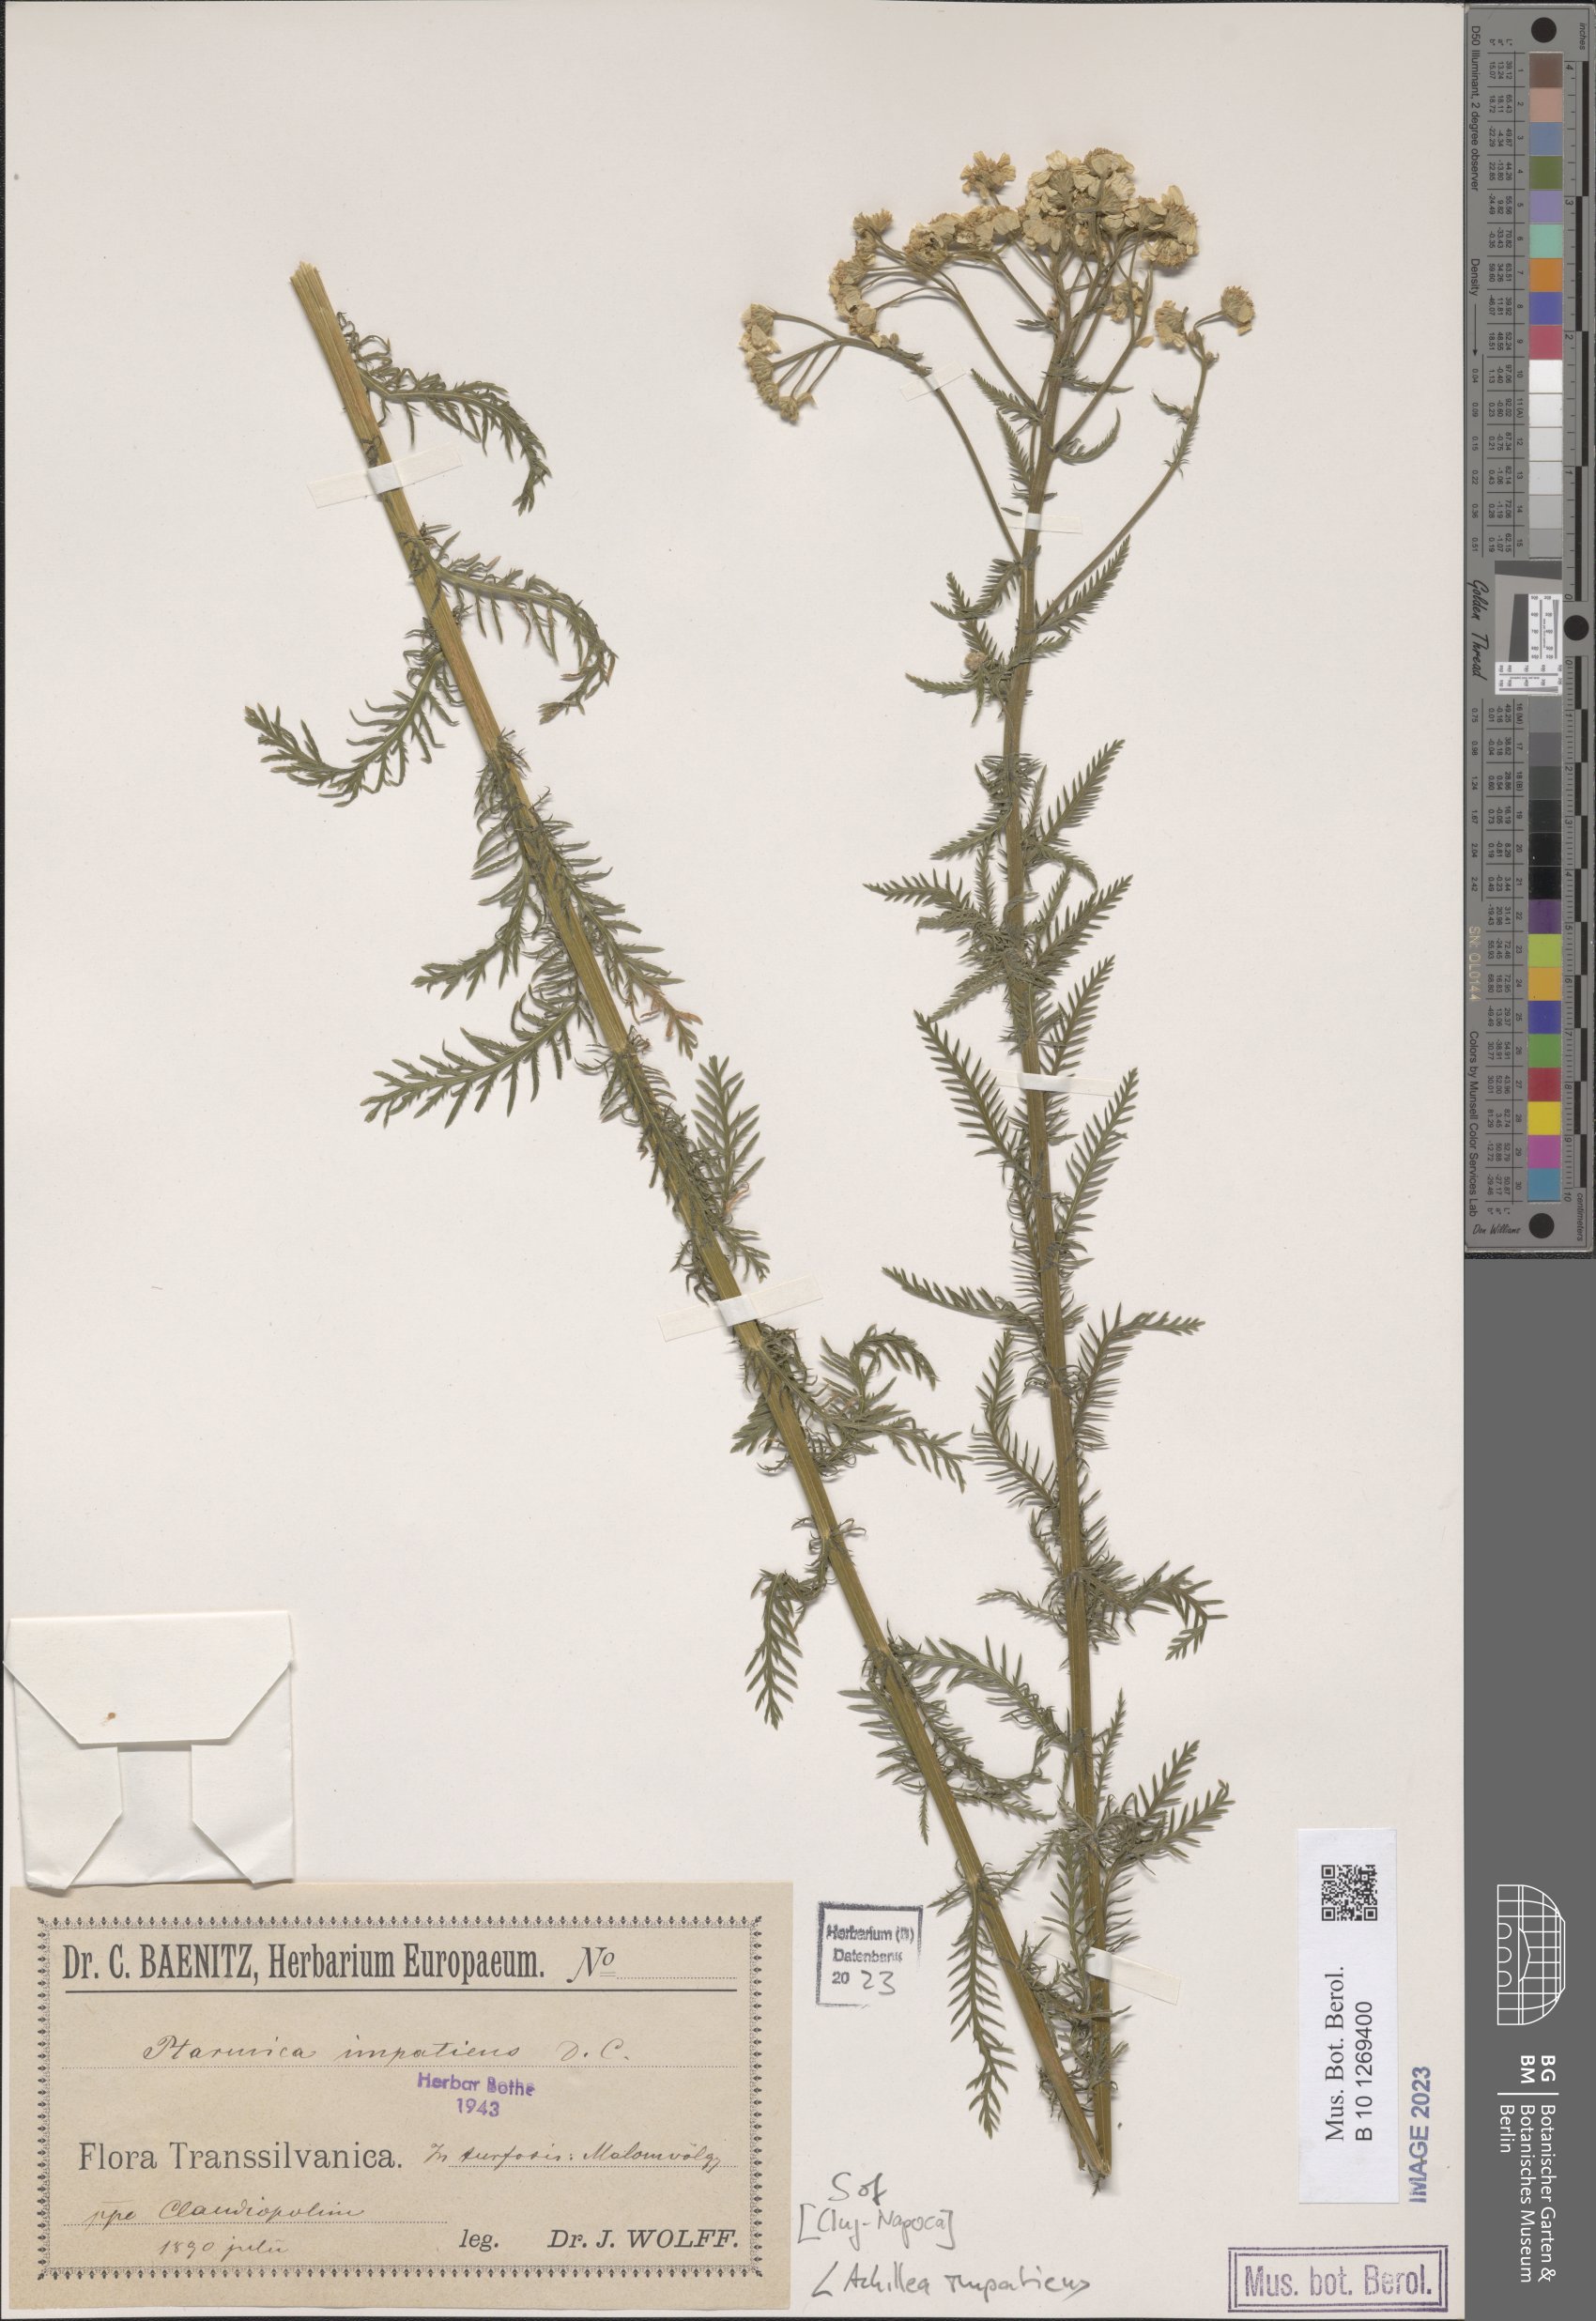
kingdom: Plantae
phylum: Tracheophyta
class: Magnoliopsida
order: Asterales
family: Asteraceae
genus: Achillea
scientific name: Achillea impatiens
